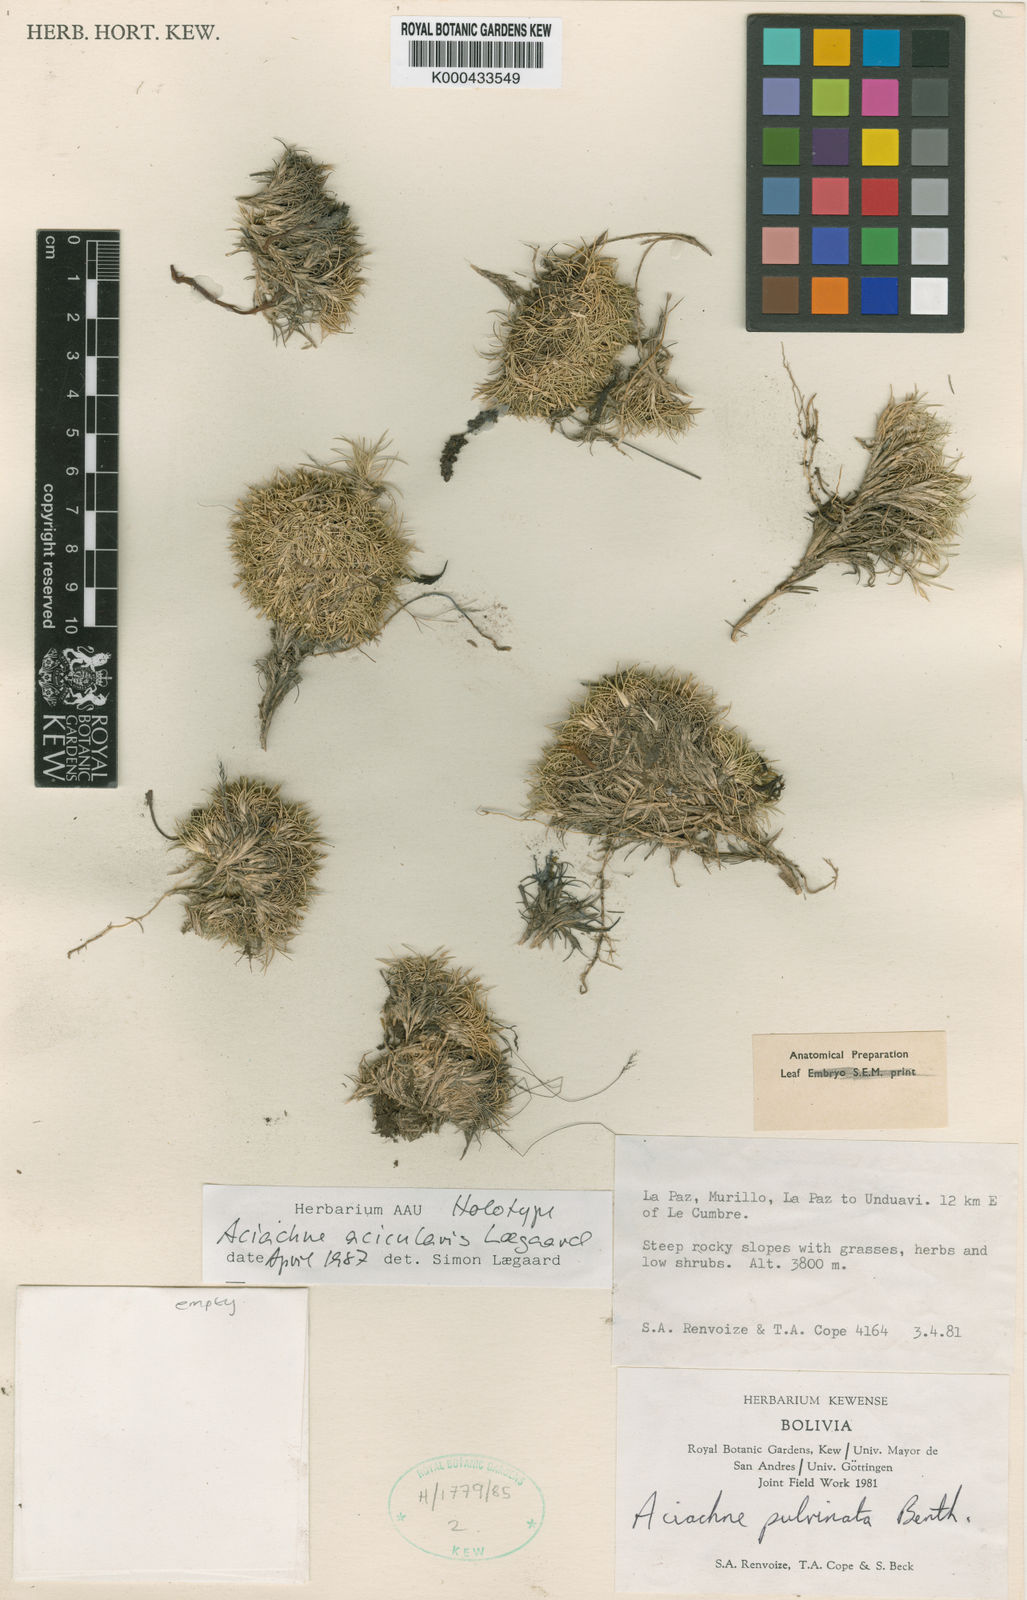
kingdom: Plantae
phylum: Tracheophyta
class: Liliopsida
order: Poales
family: Poaceae
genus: Aciachne
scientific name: Aciachne acicularis
